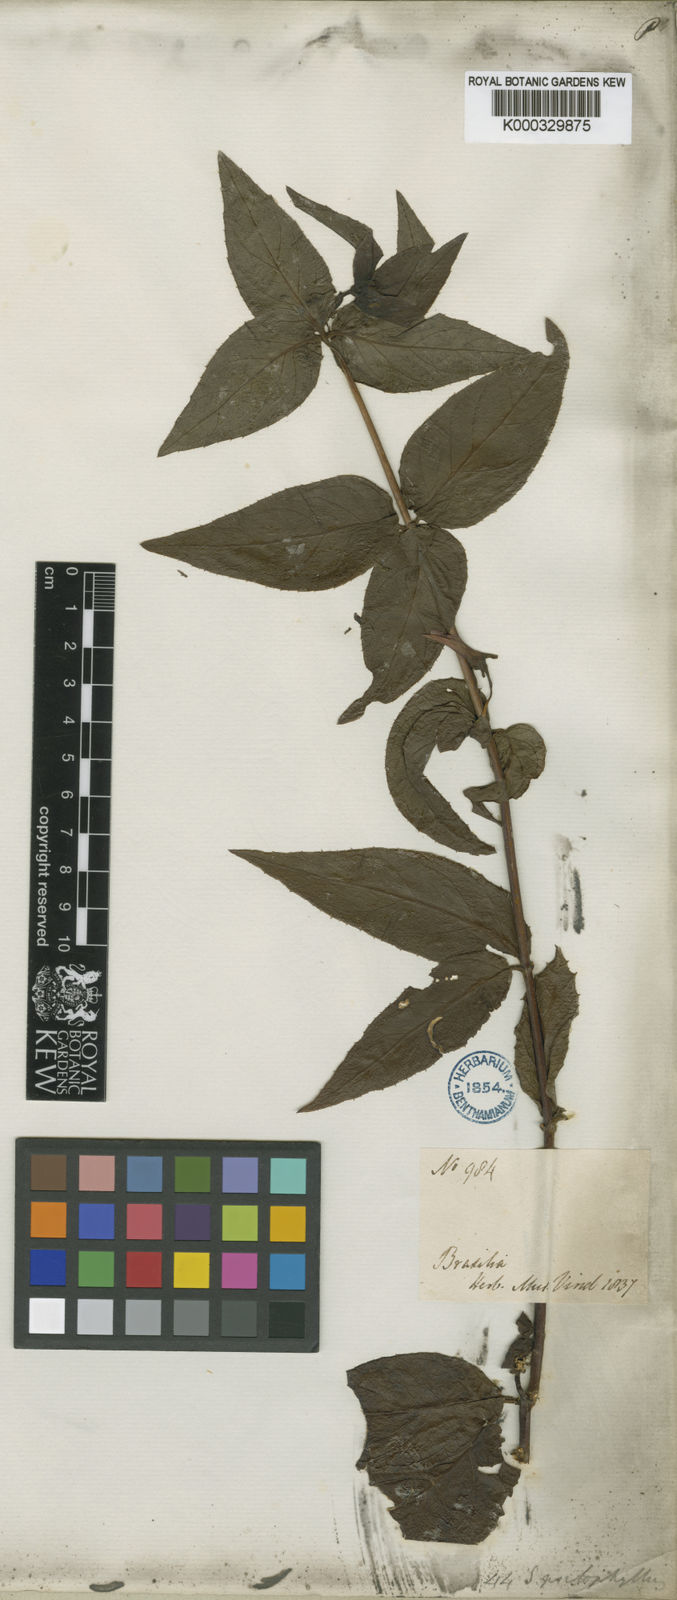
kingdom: Plantae
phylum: Tracheophyta
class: Magnoliopsida
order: Asterales
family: Campanulaceae
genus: Siphocampylus
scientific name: Siphocampylus psilophyllus
